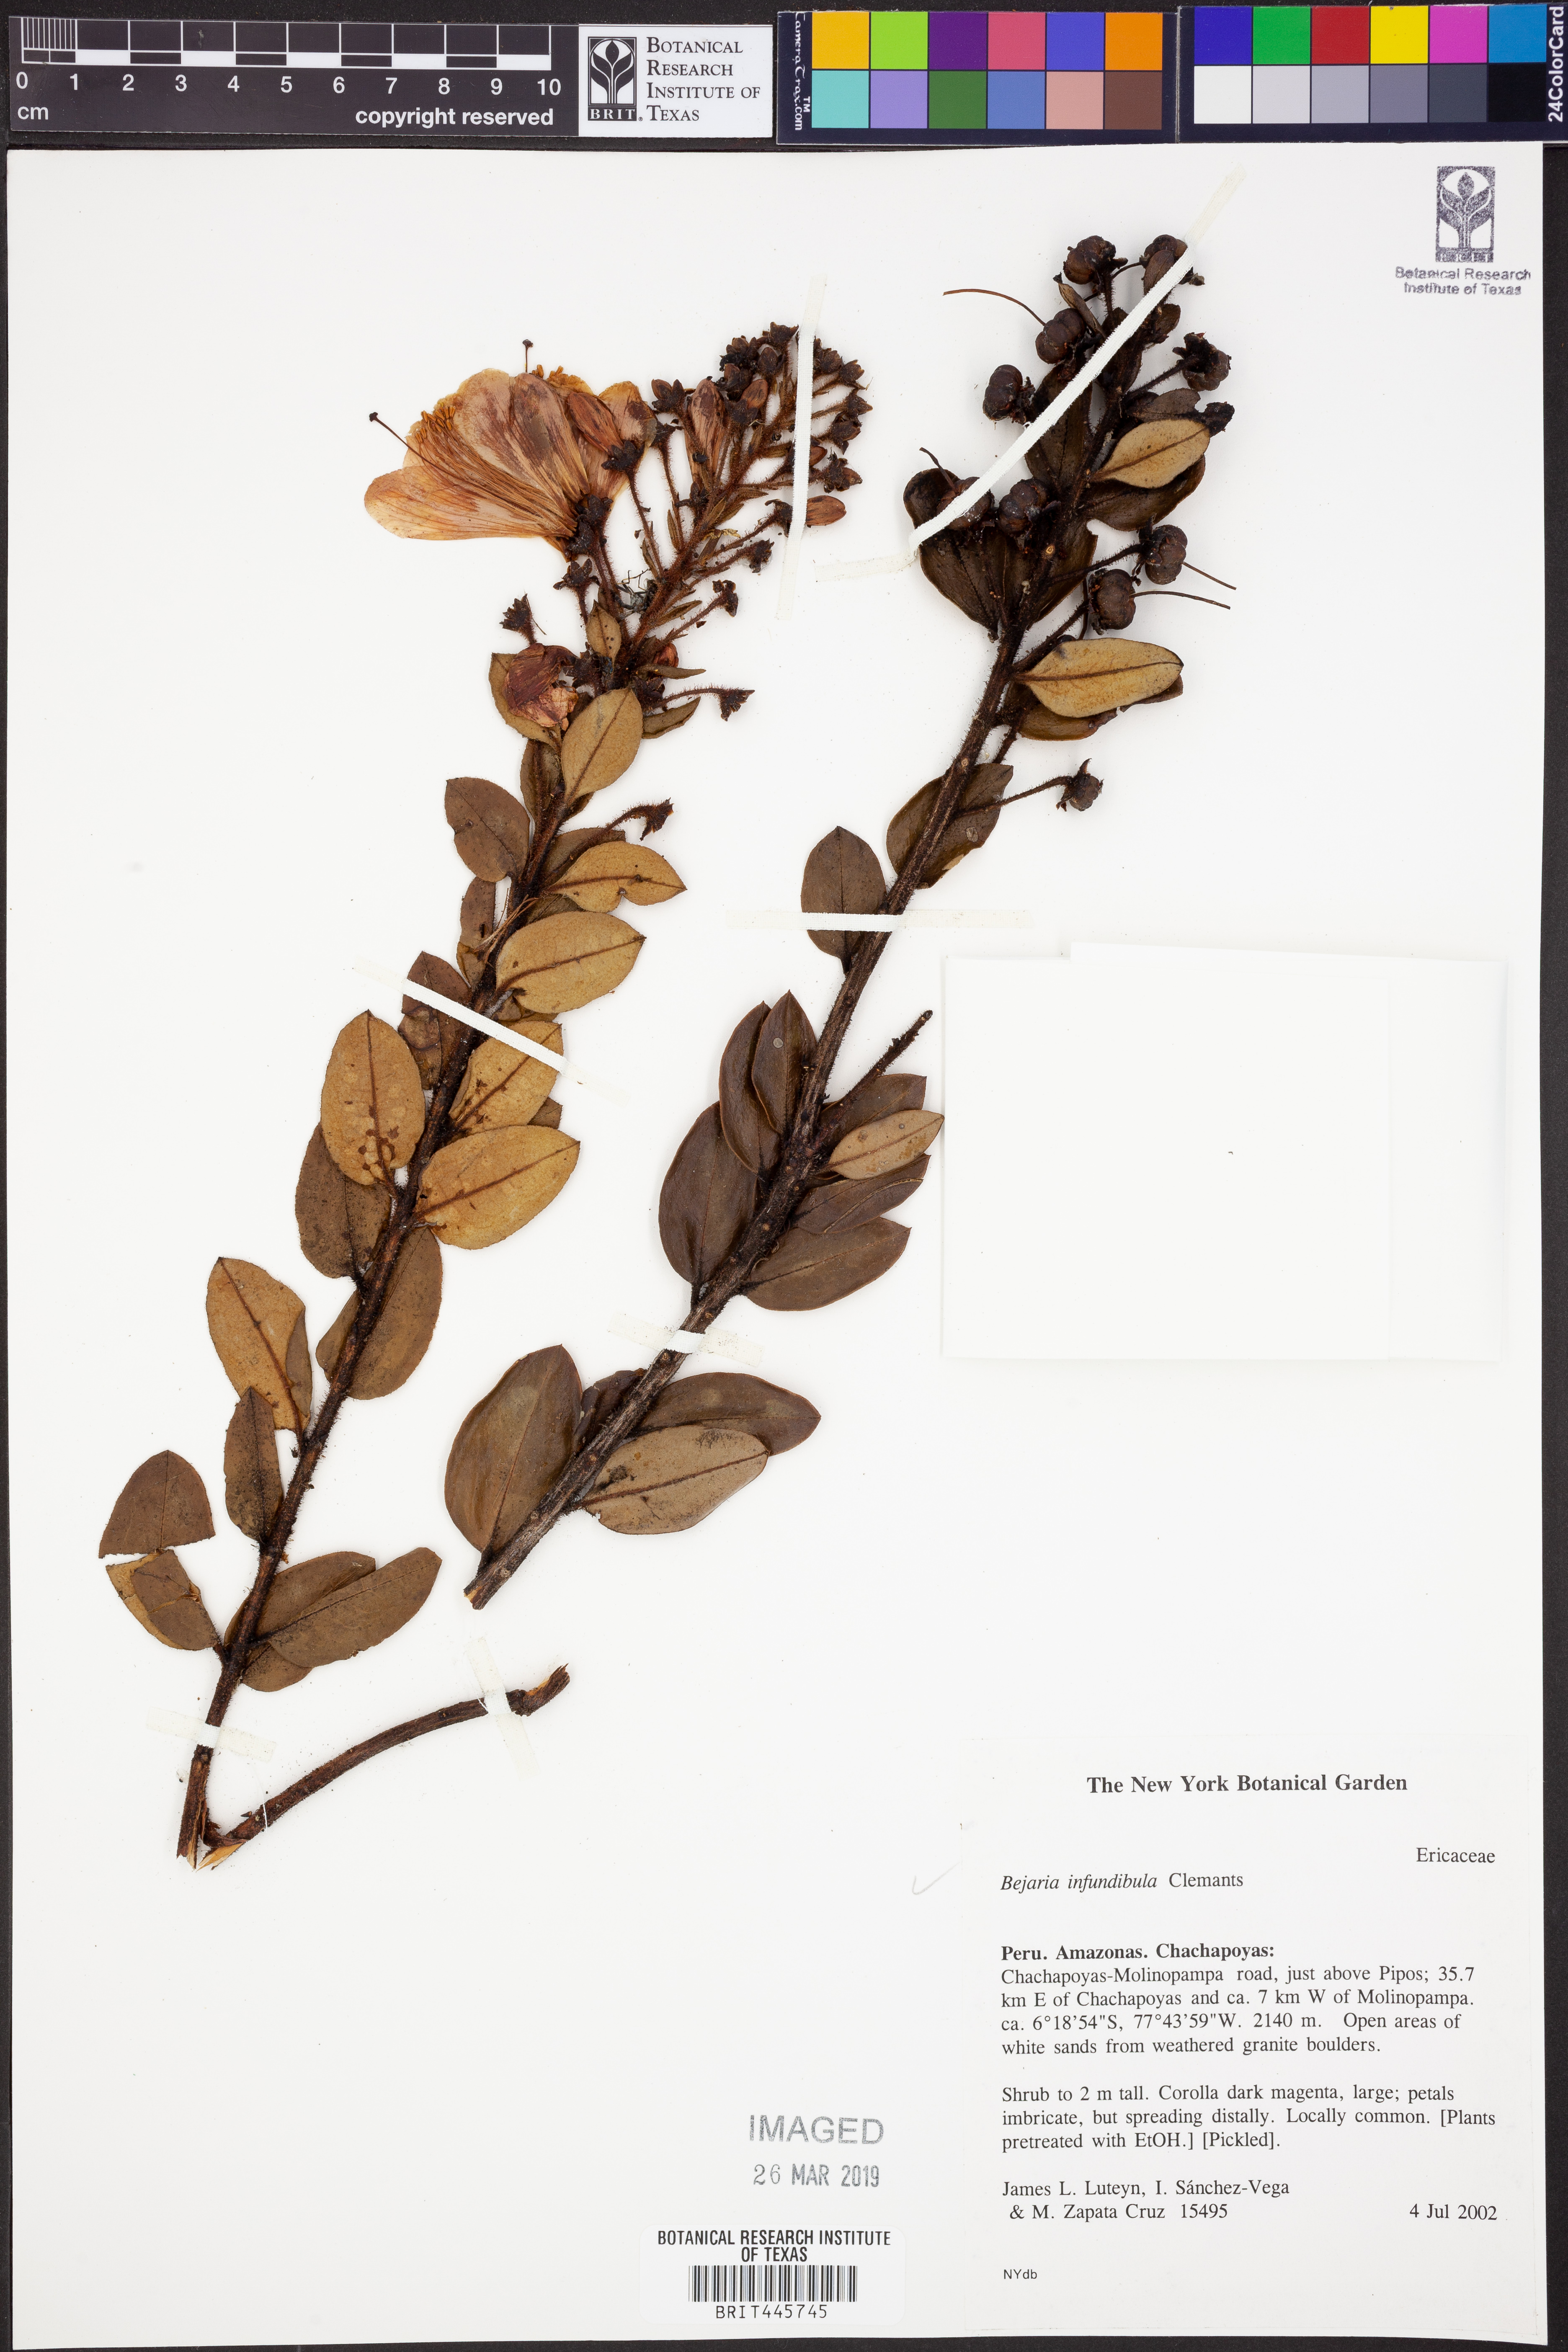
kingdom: Plantae
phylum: Tracheophyta
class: Magnoliopsida
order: Ericales
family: Ericaceae
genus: Bejaria
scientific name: Bejaria infundibula
